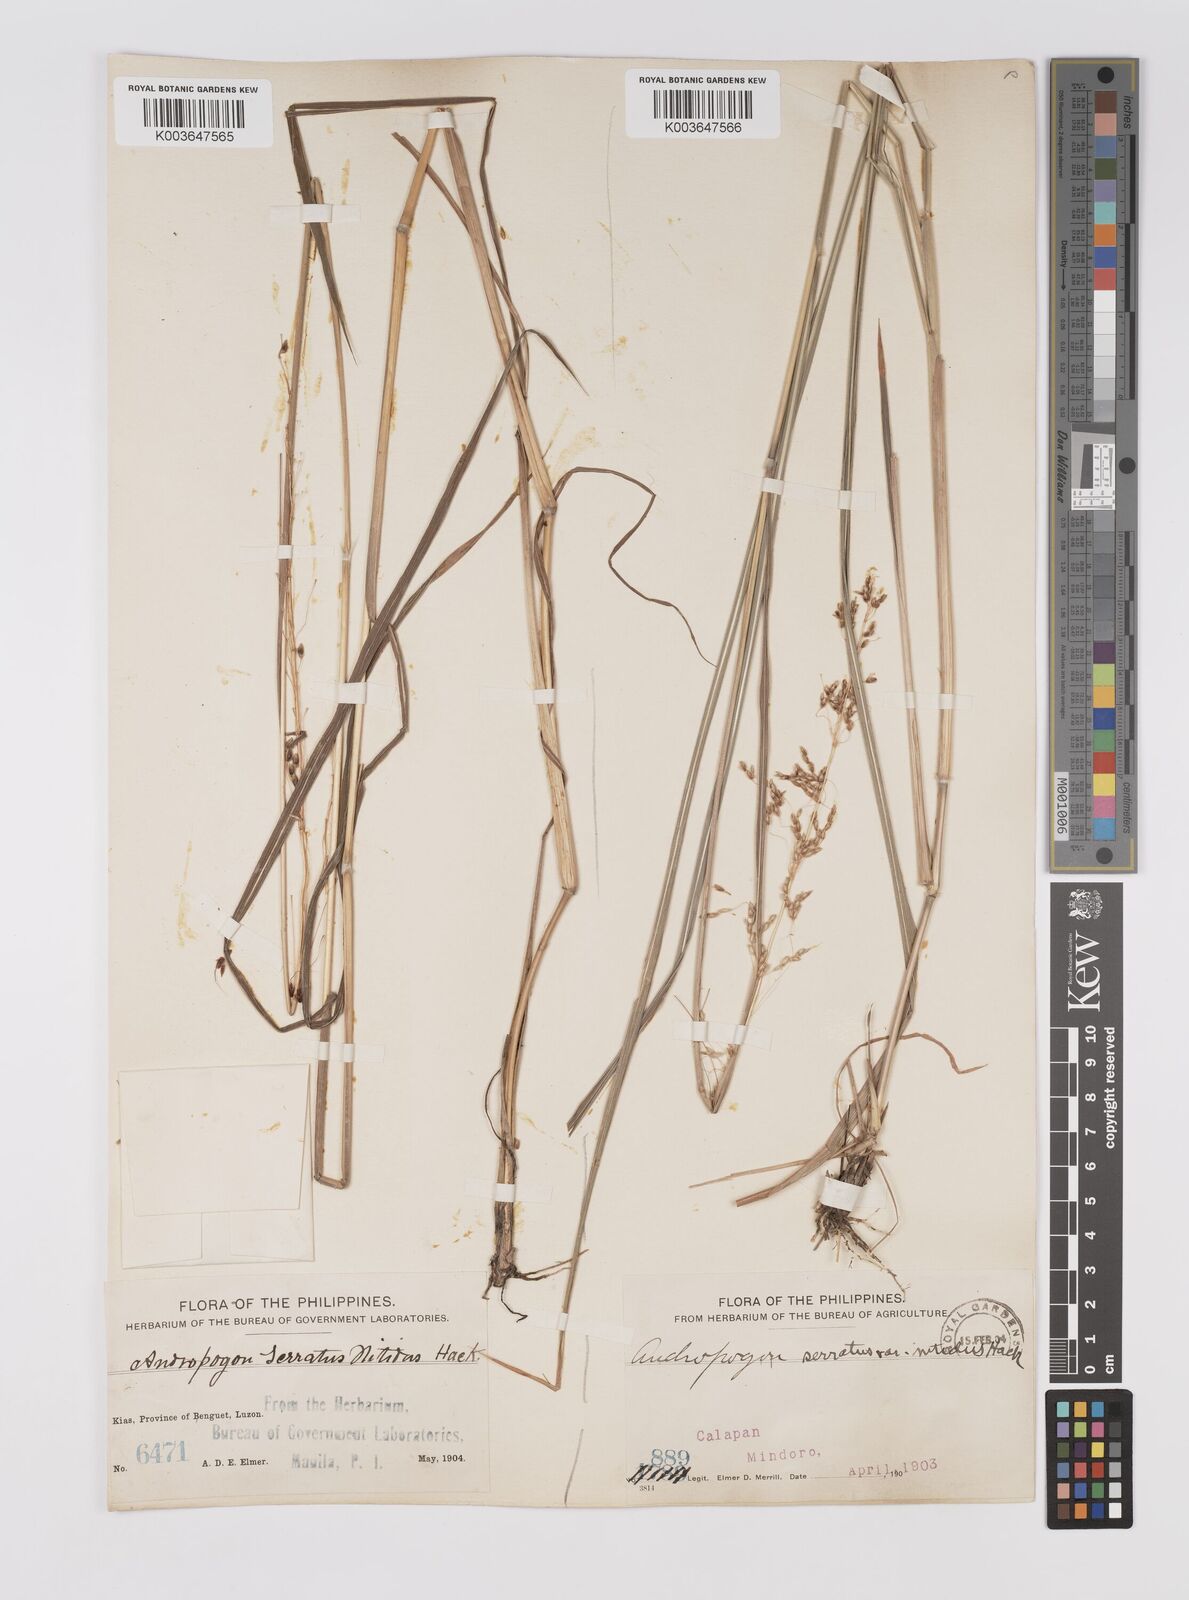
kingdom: Plantae
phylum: Tracheophyta
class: Liliopsida
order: Poales
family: Poaceae
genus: Sorghum
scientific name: Sorghum nitidum
